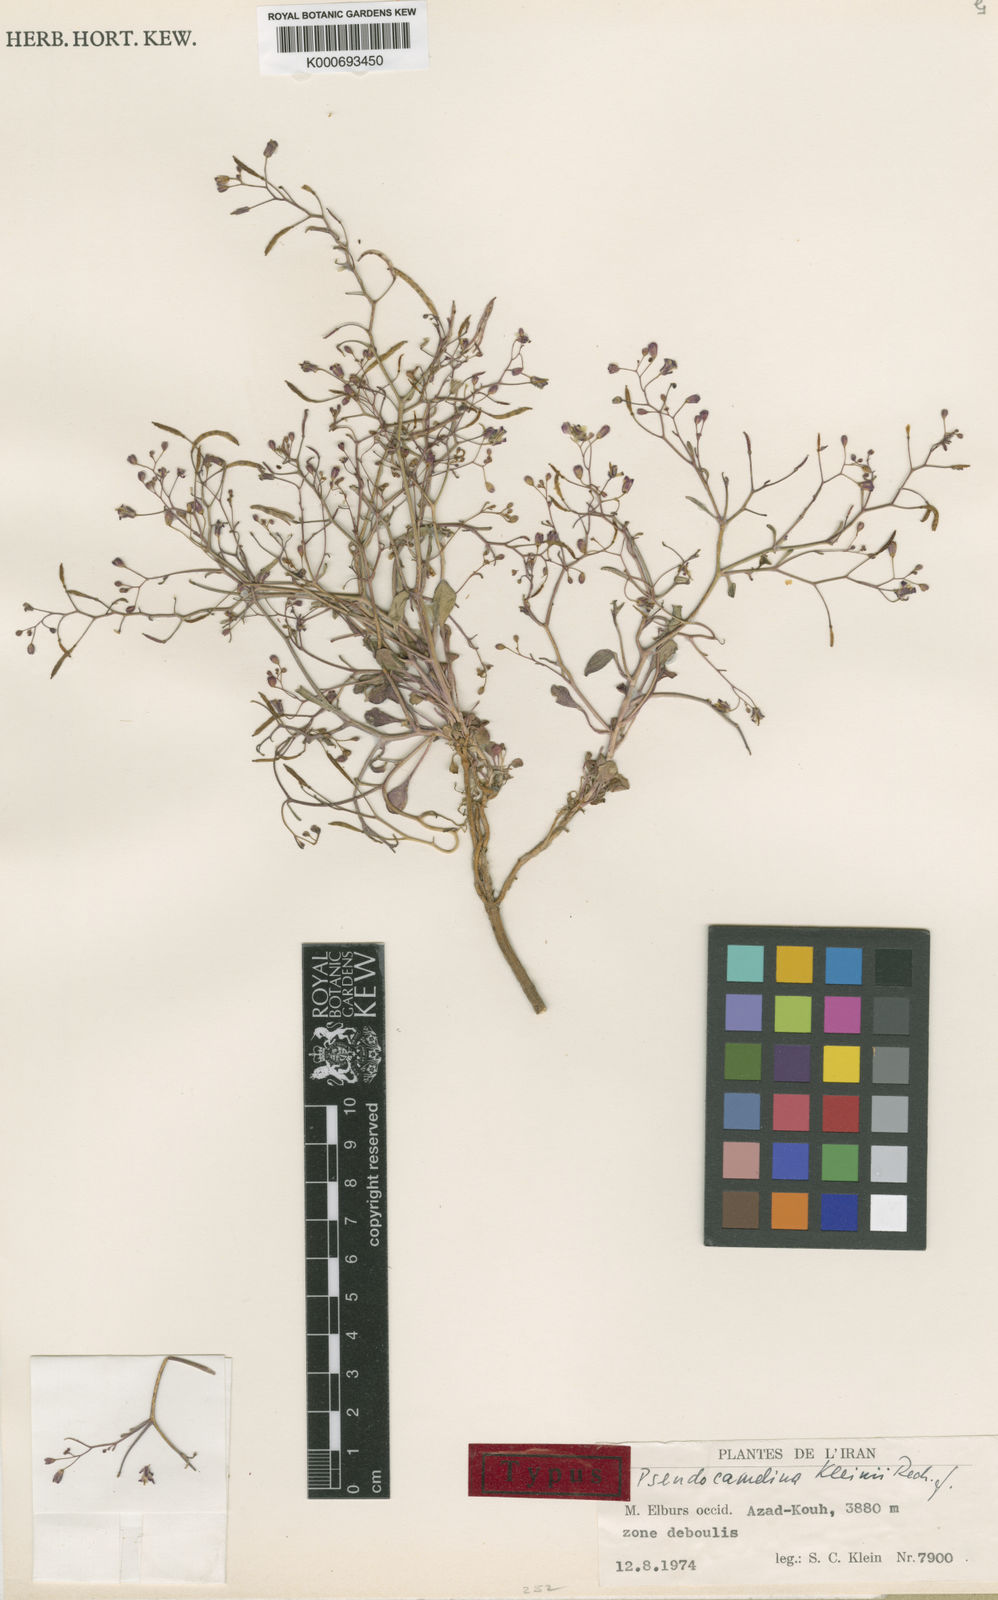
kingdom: Plantae
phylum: Tracheophyta
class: Magnoliopsida
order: Brassicales
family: Brassicaceae
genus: Pseudocamelina
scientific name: Pseudocamelina kleinii
